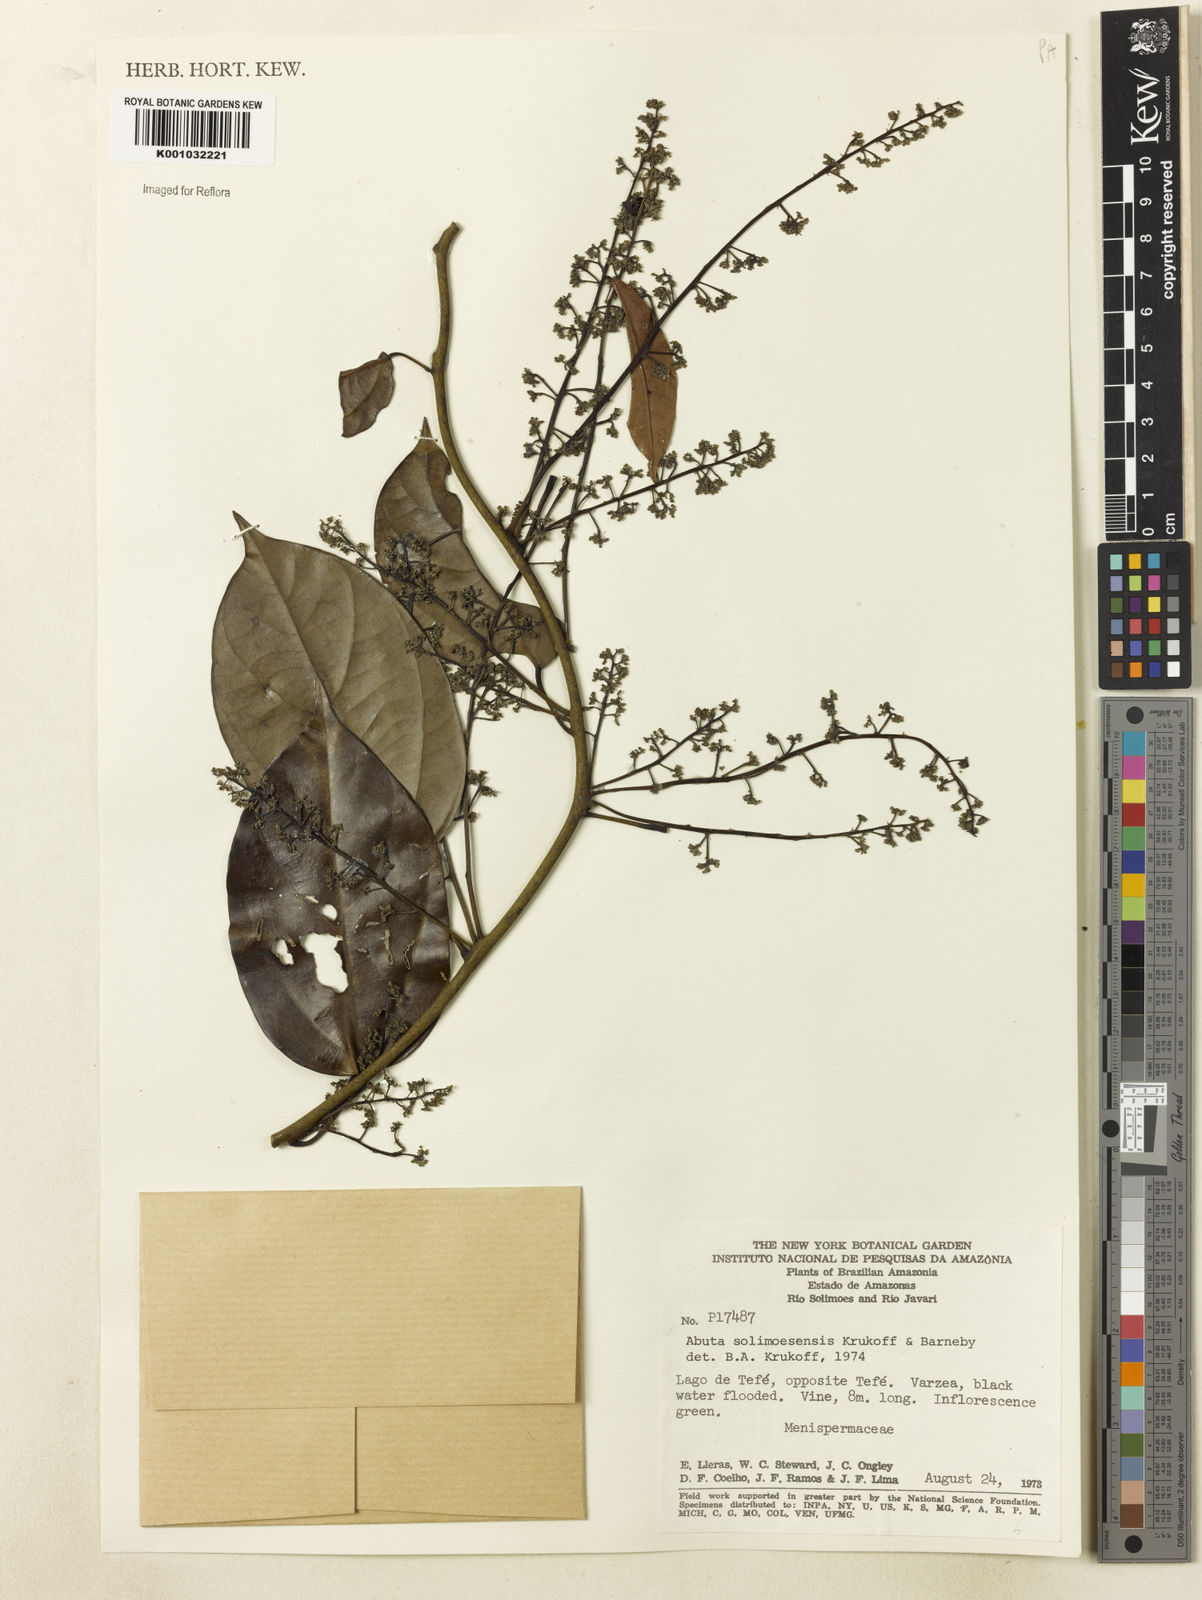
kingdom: Plantae
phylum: Tracheophyta
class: Magnoliopsida
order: Ranunculales
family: Menispermaceae
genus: Abuta
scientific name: Abuta solimoesensis
